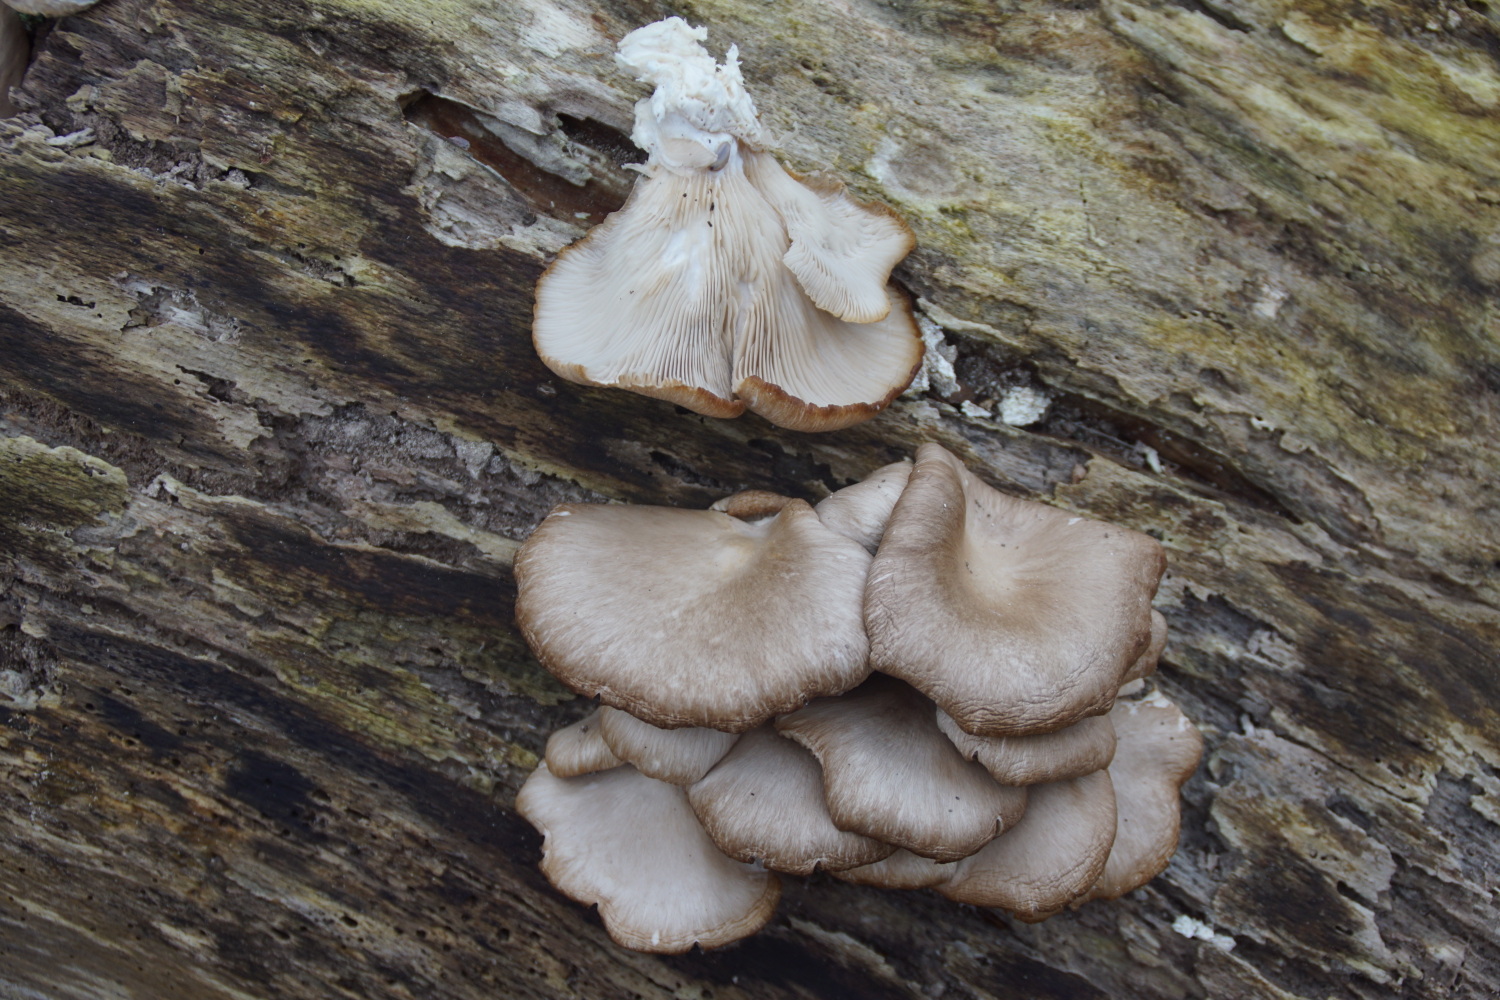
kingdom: Fungi
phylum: Basidiomycota
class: Agaricomycetes
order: Agaricales
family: Pleurotaceae
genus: Pleurotus
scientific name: Pleurotus ostreatus
